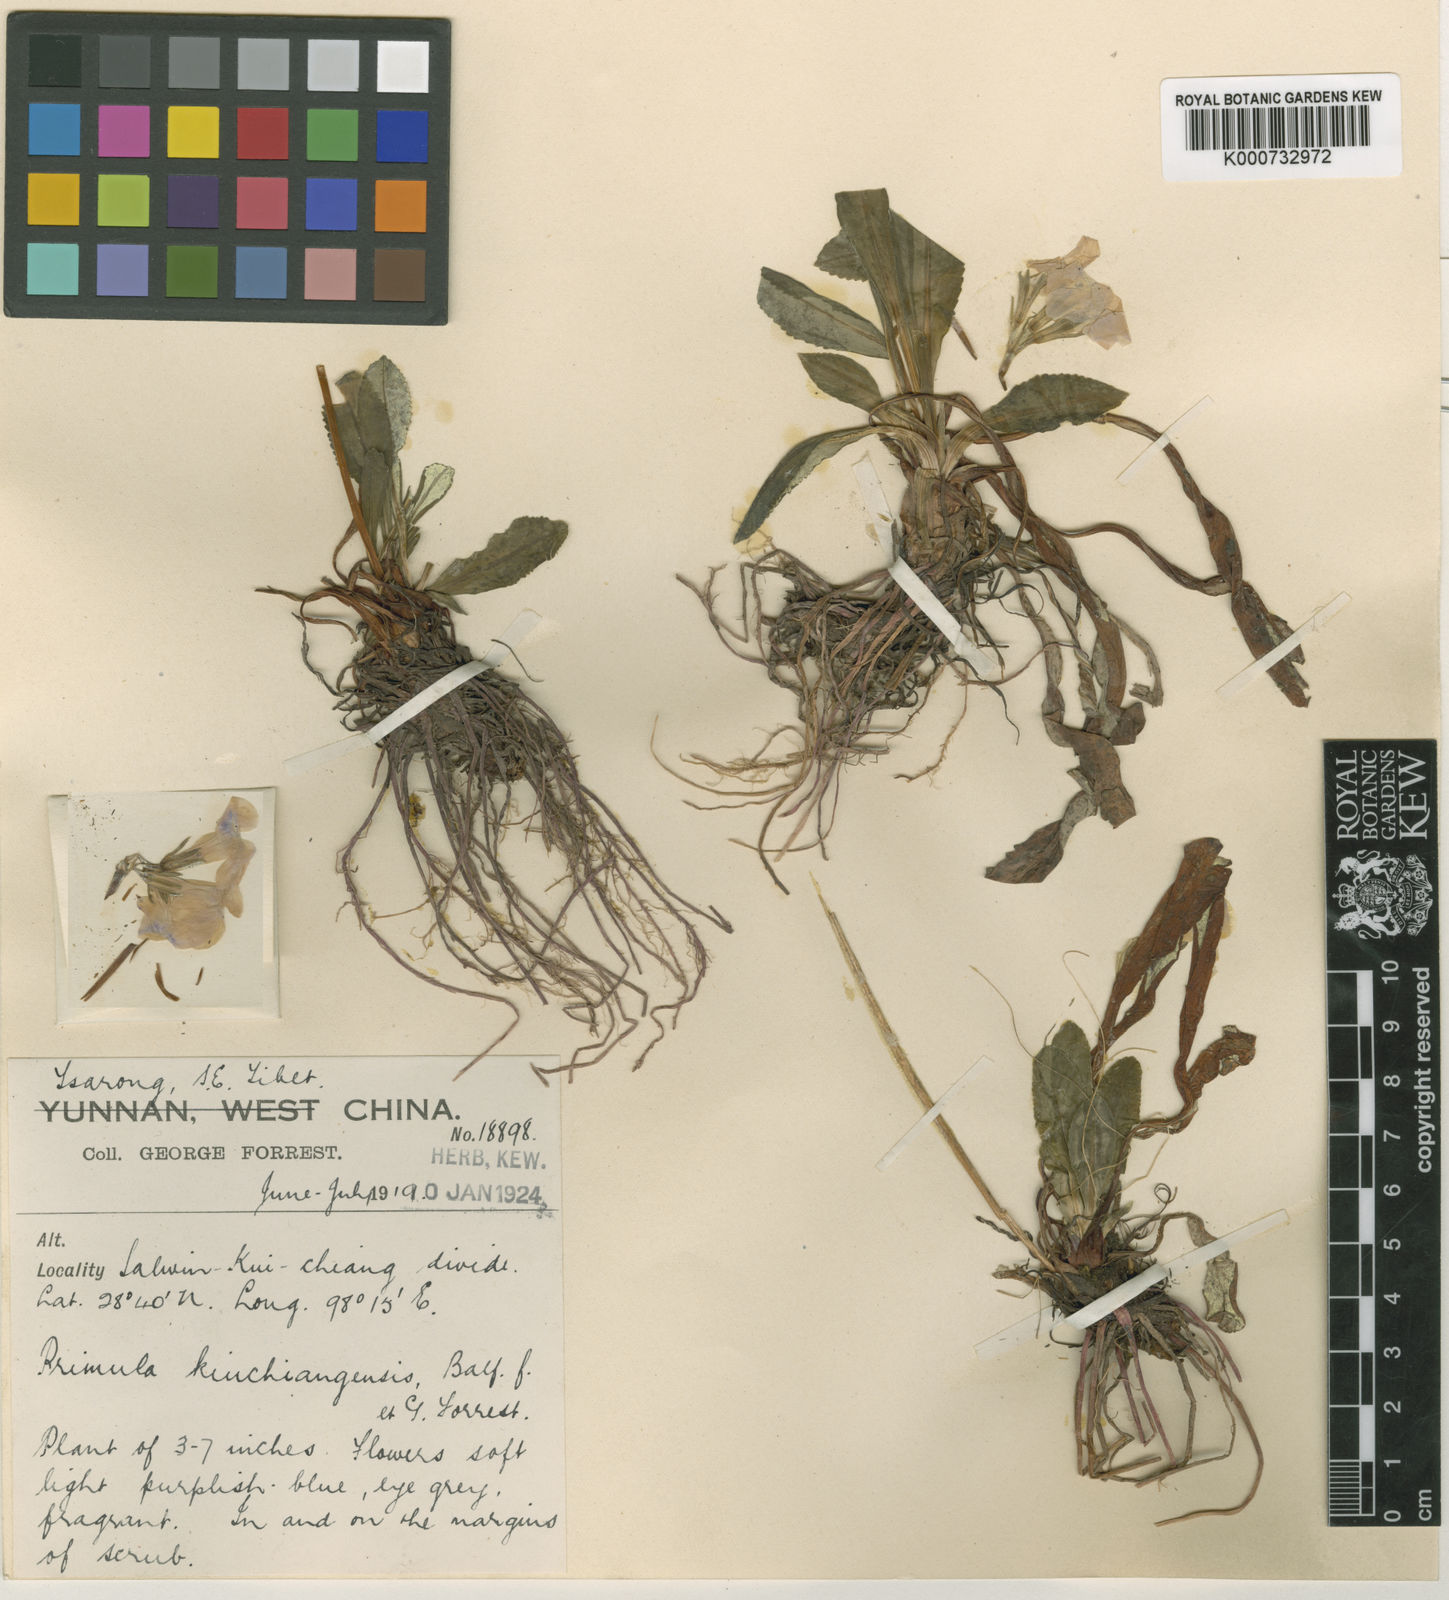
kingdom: Plantae
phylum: Tracheophyta
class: Magnoliopsida
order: Ericales
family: Primulaceae
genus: Primula
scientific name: Primula
